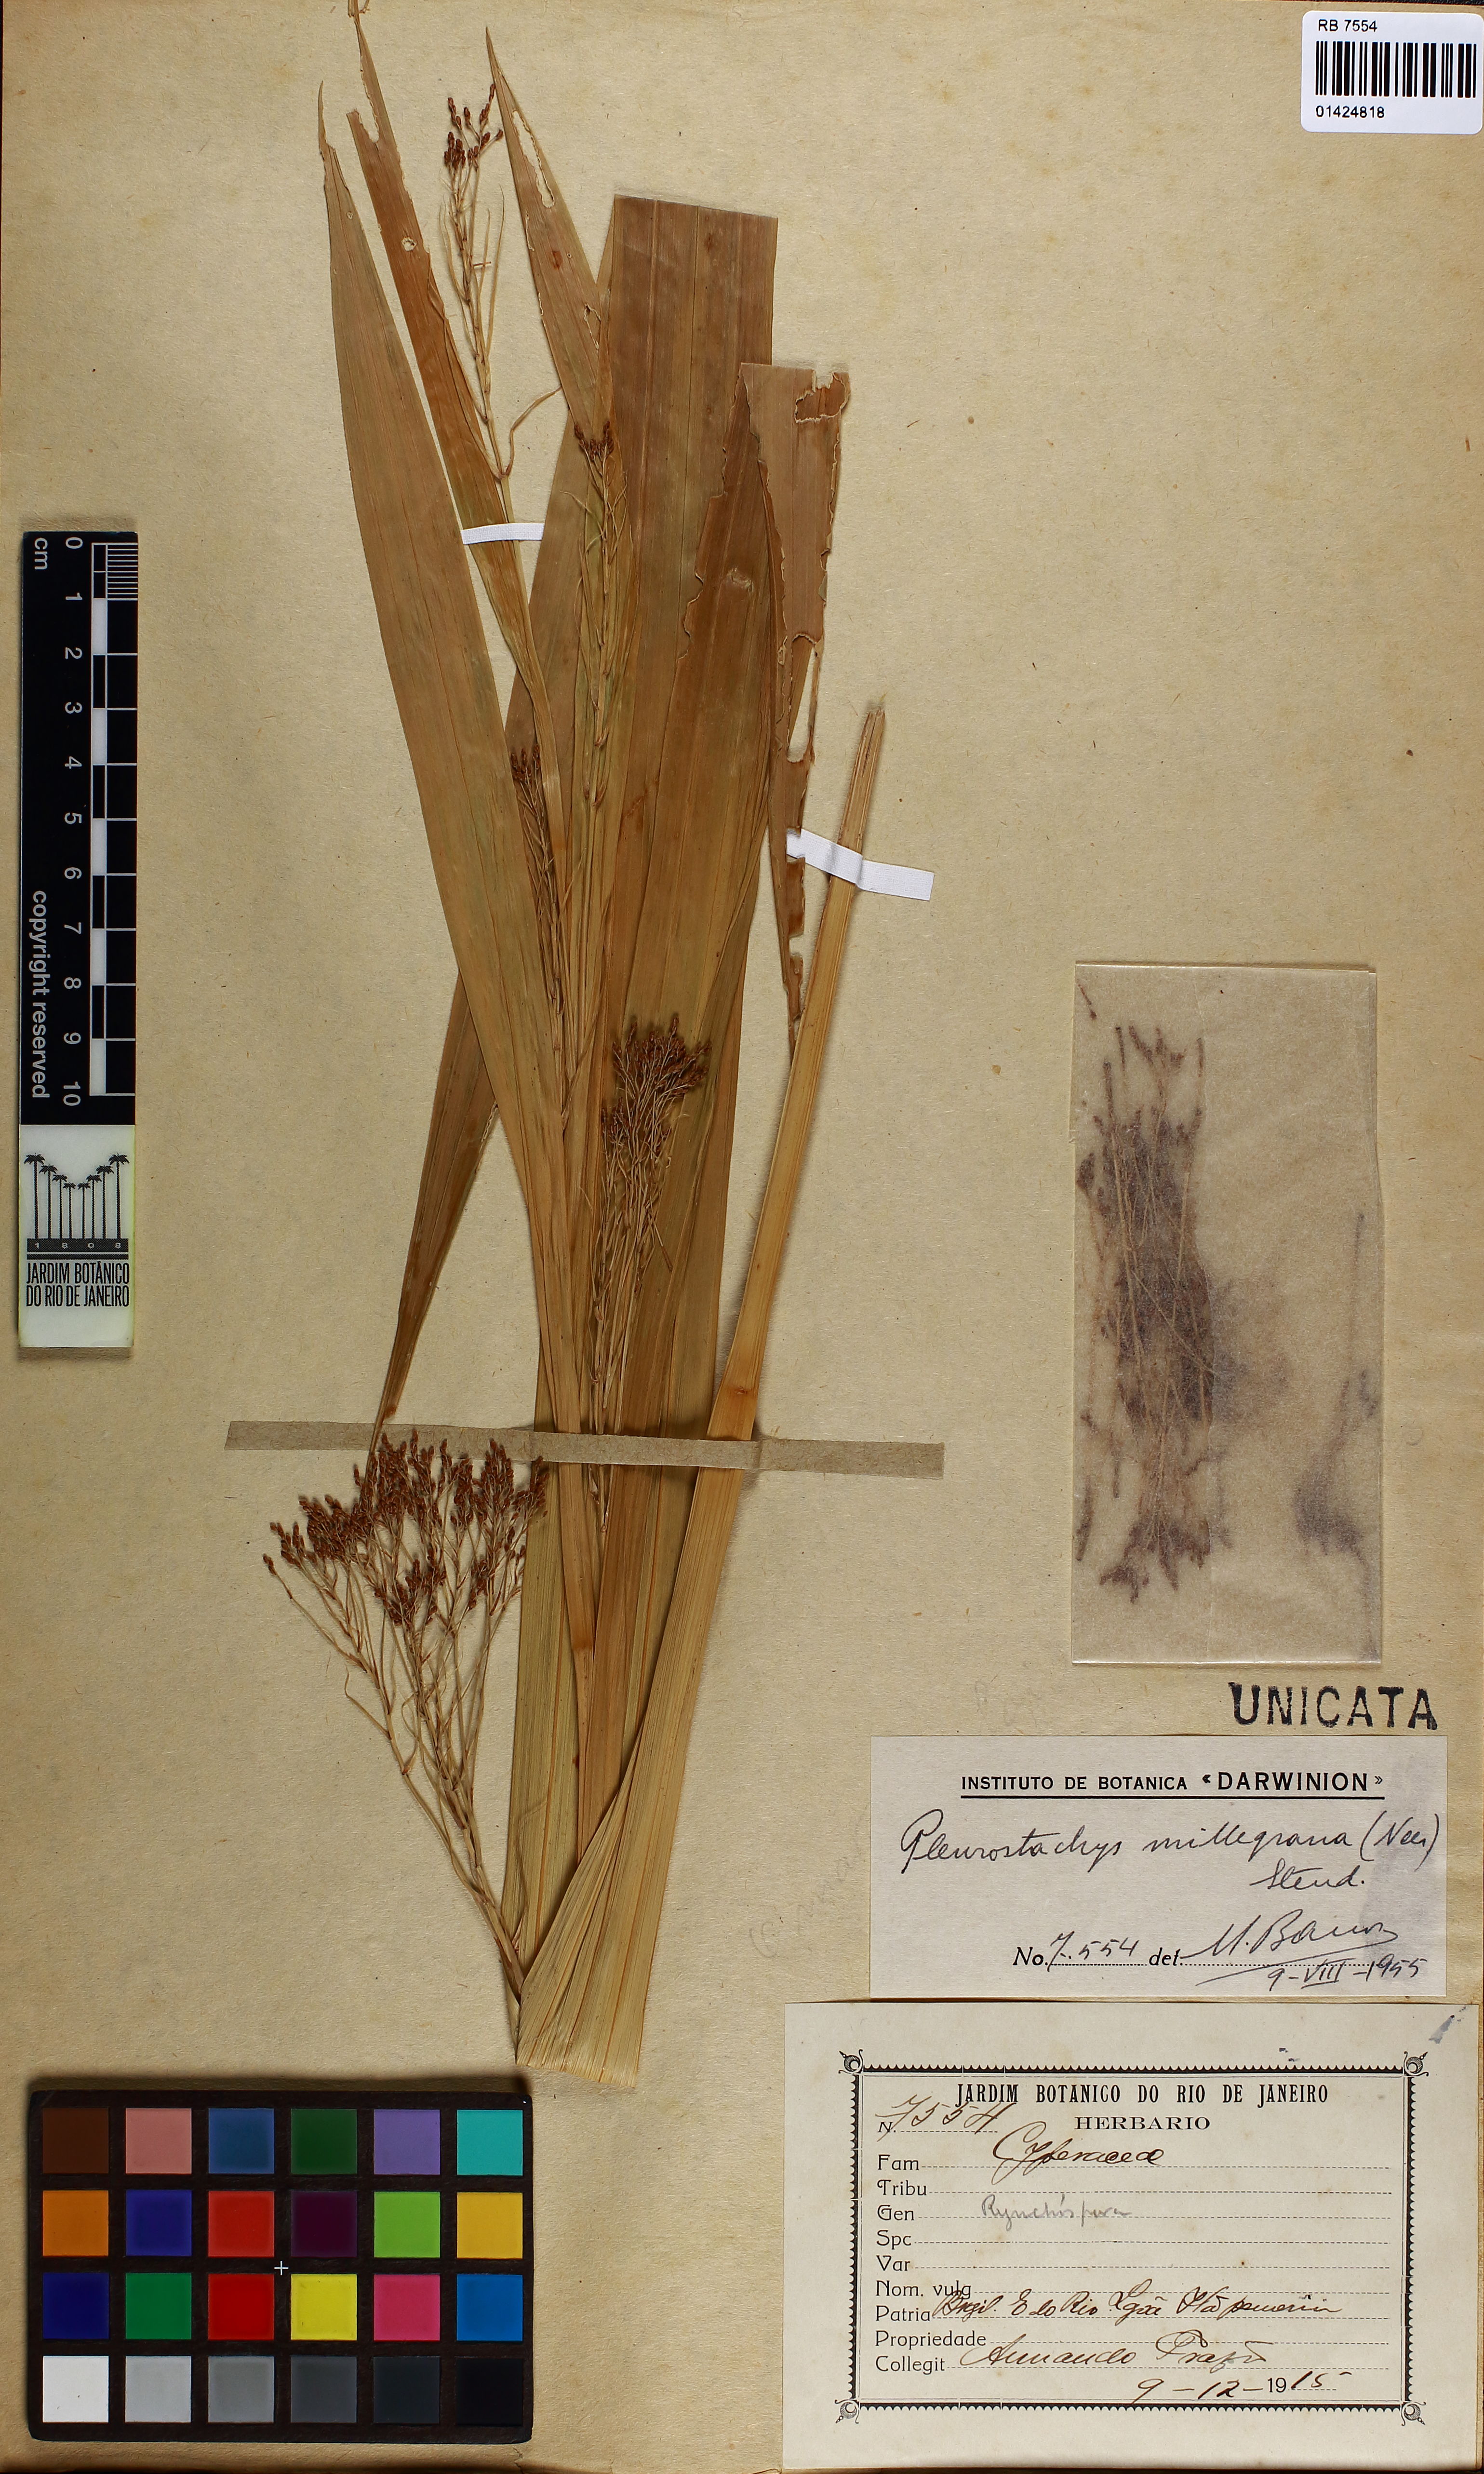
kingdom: Plantae
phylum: Tracheophyta
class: Liliopsida
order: Poales
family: Cyperaceae
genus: Rhynchospora
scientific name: Rhynchospora orbignyana
